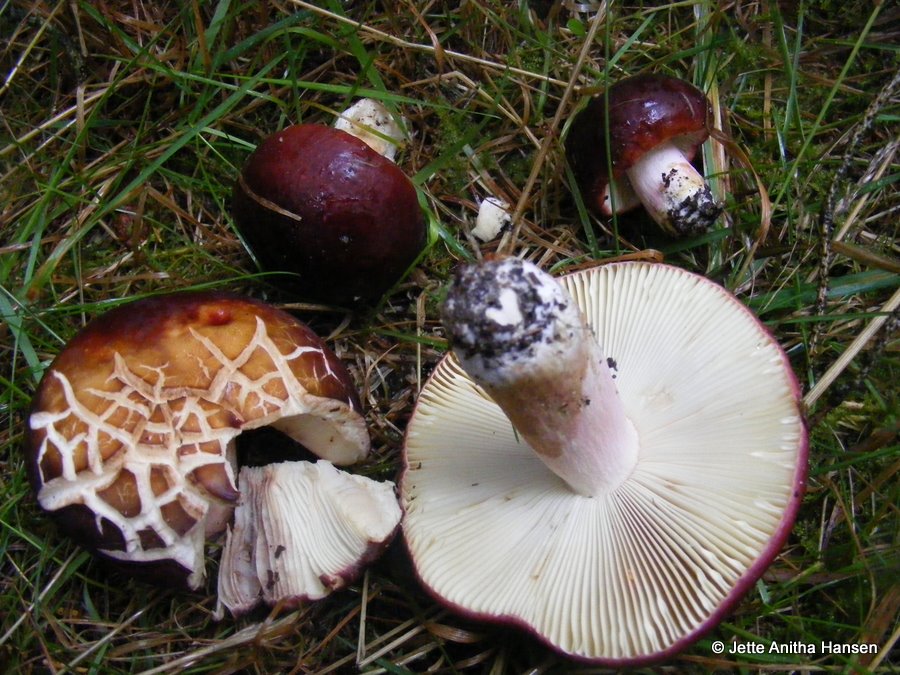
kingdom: Fungi
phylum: Basidiomycota
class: Agaricomycetes
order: Russulales
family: Russulaceae
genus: Russula
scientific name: Russula xerampelina
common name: hummer-skørhat
